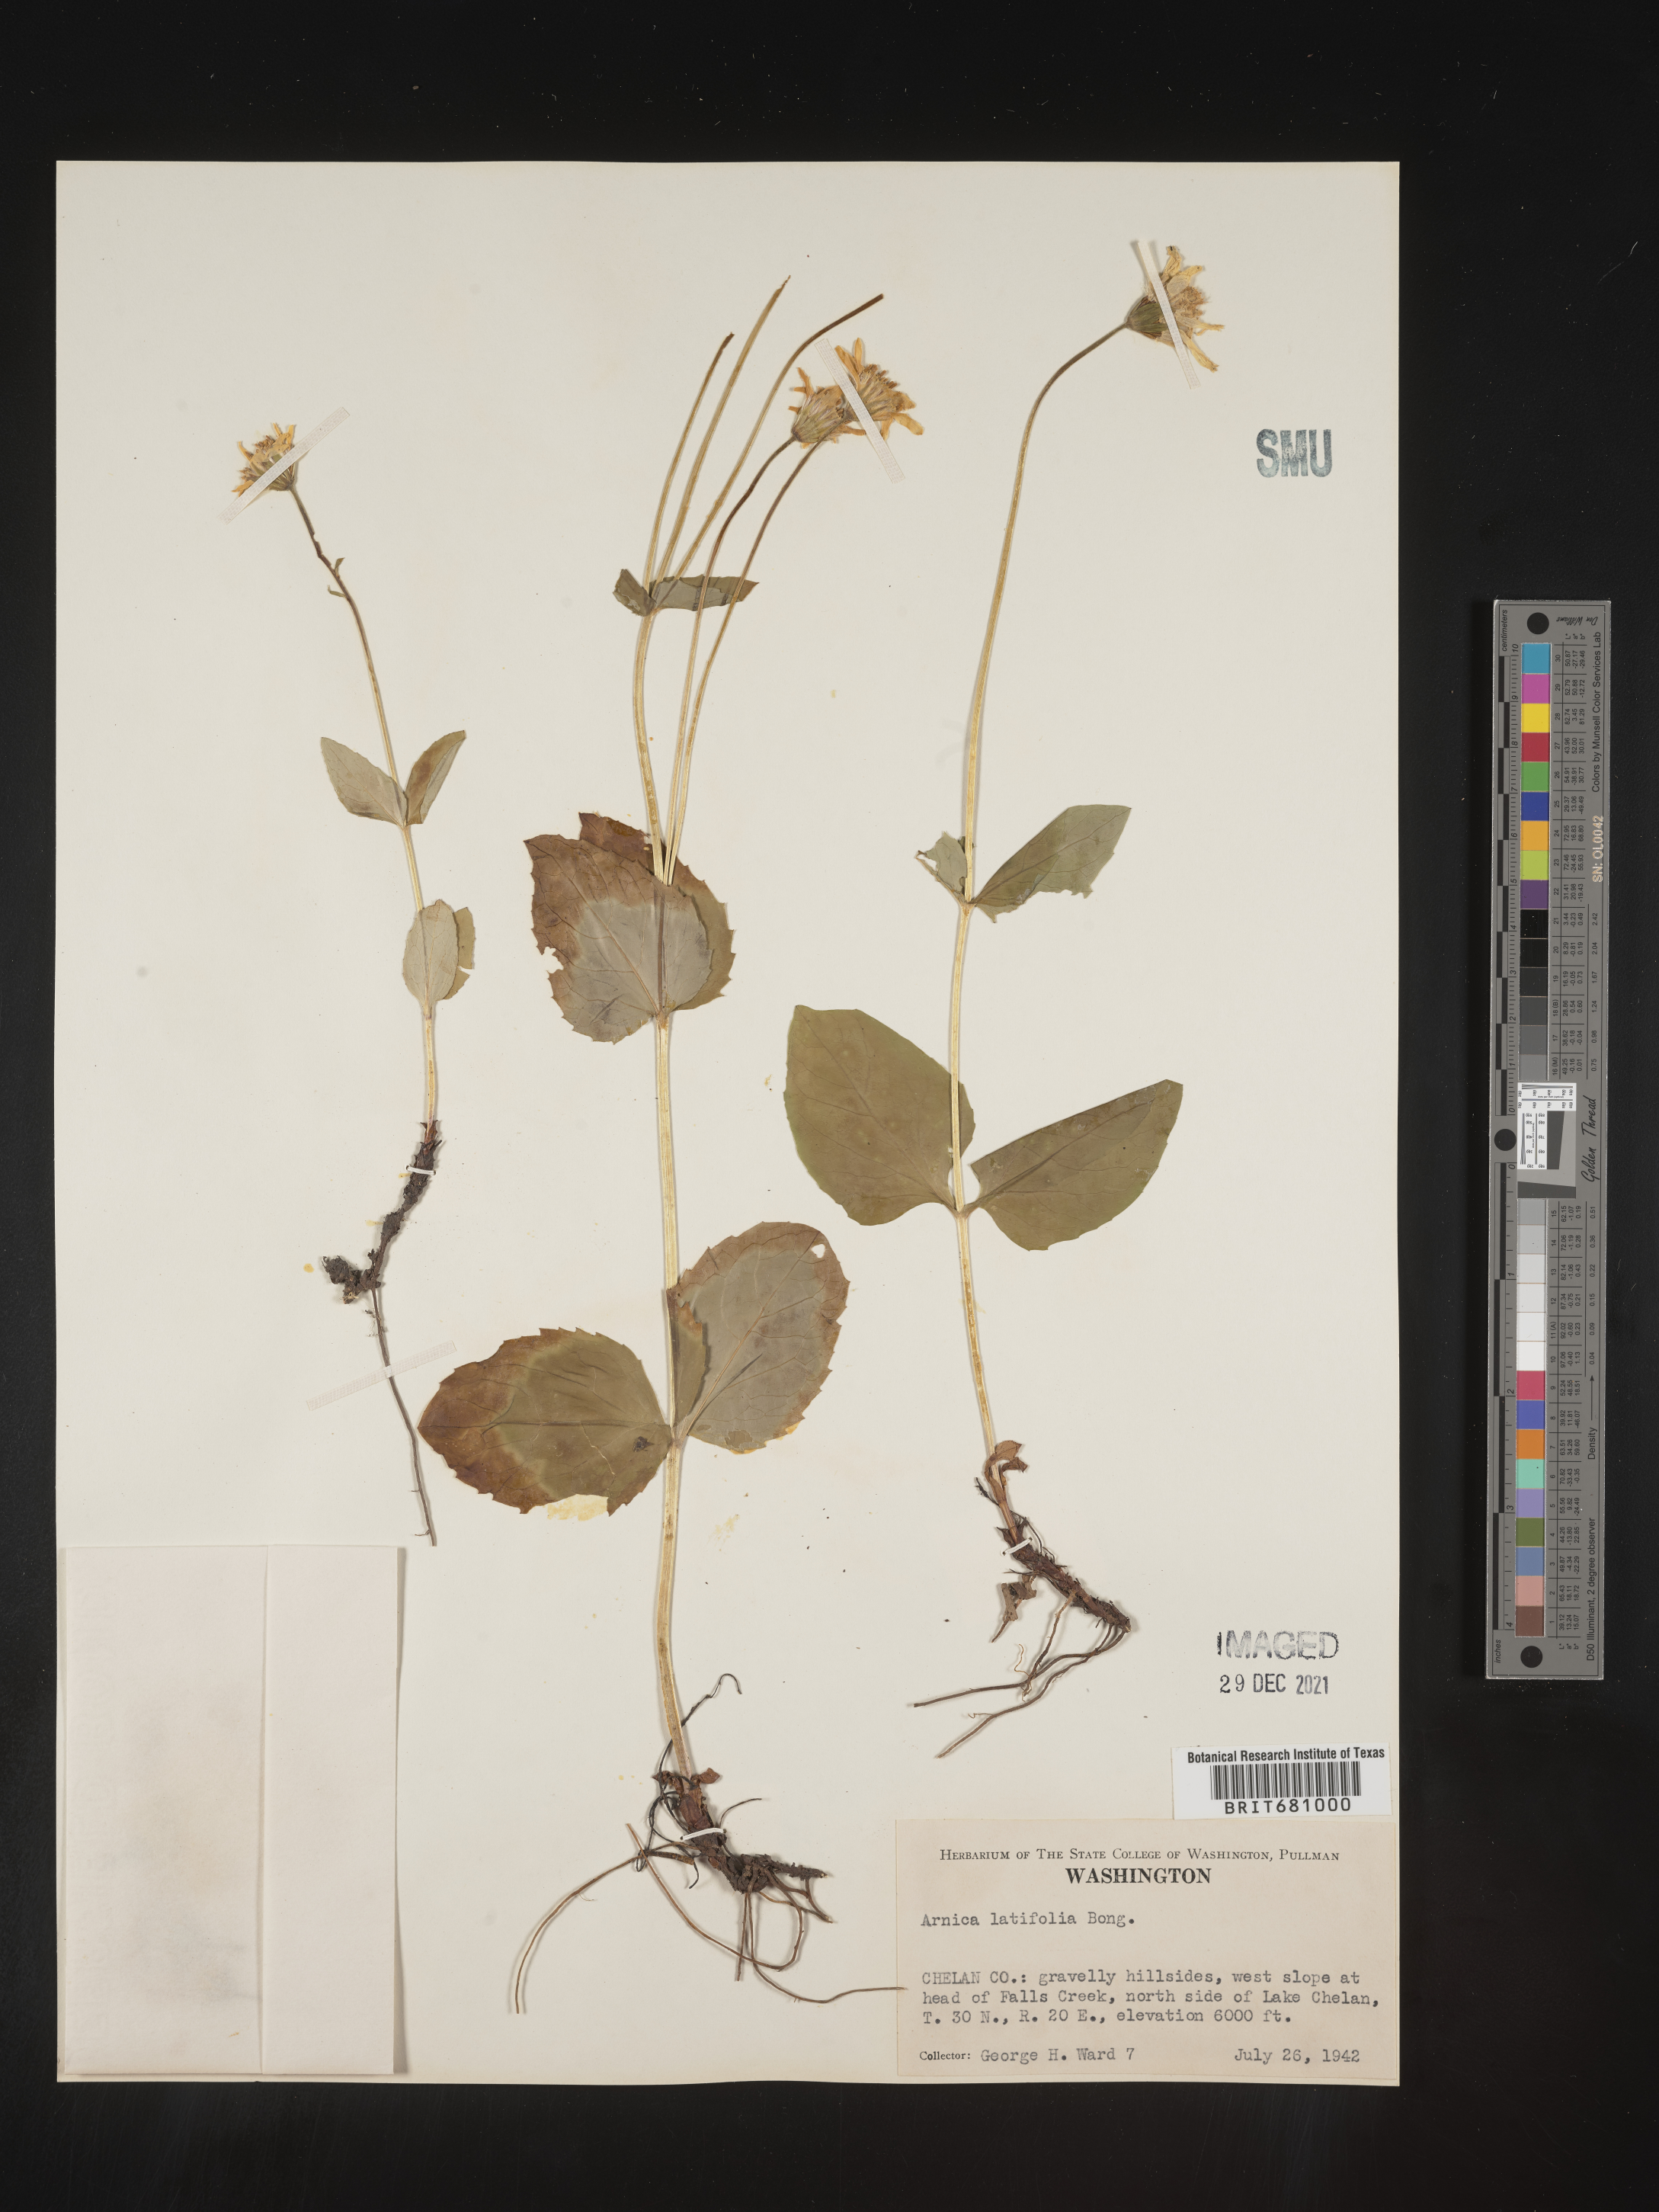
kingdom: Plantae
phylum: Tracheophyta
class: Magnoliopsida
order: Asterales
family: Asteraceae
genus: Arnica
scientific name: Arnica latifolia
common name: Arnica
